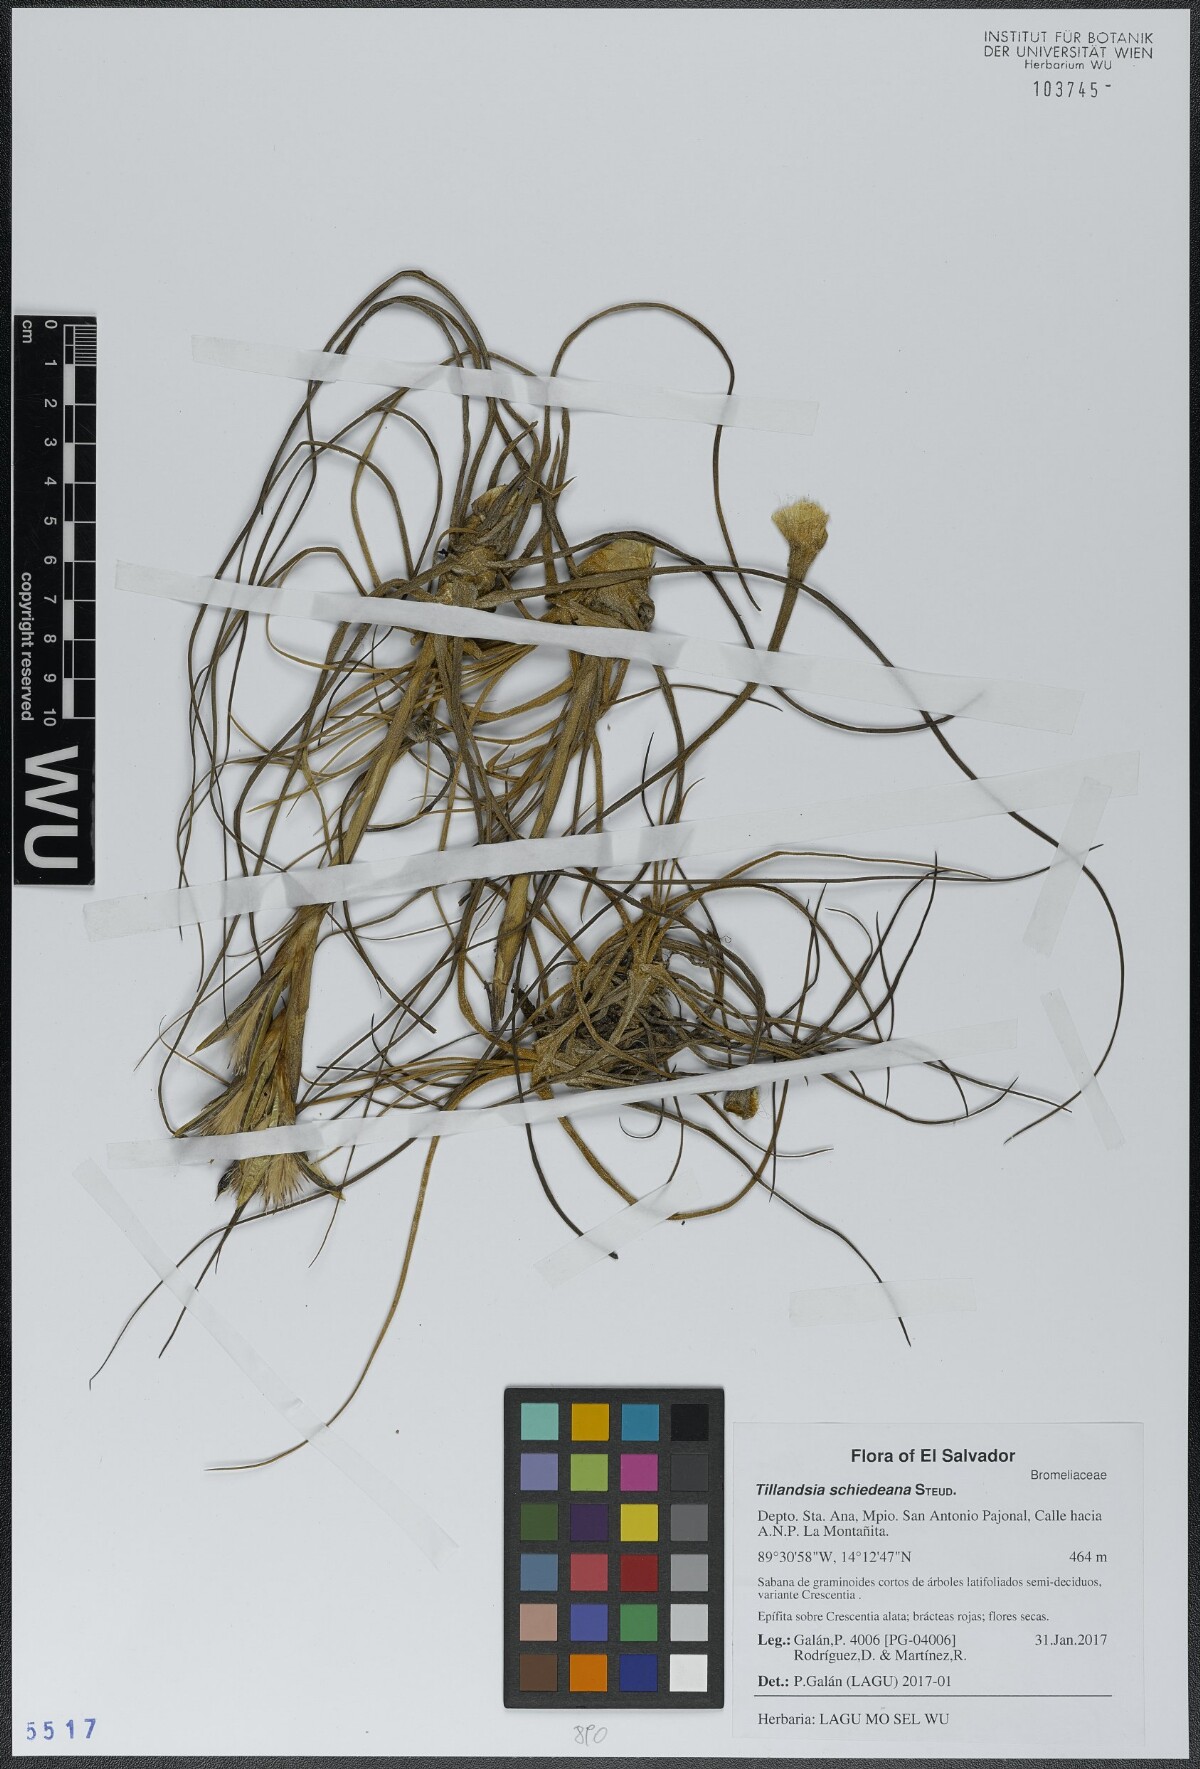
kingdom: Plantae
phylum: Tracheophyta
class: Liliopsida
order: Poales
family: Bromeliaceae
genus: Tillandsia
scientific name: Tillandsia schiedeana
